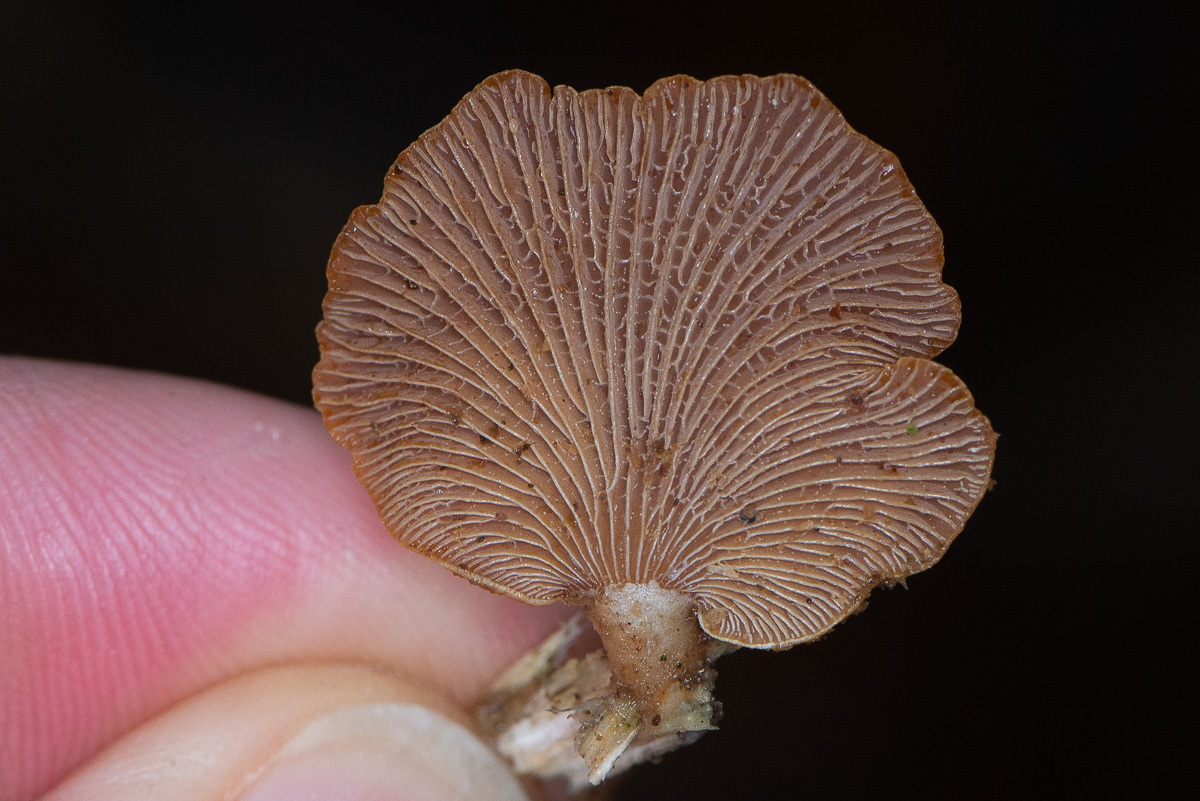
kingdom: Fungi
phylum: Basidiomycota
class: Agaricomycetes
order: Agaricales
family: Mycenaceae
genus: Panellus
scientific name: Panellus stipticus
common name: kliddet epaulethat
